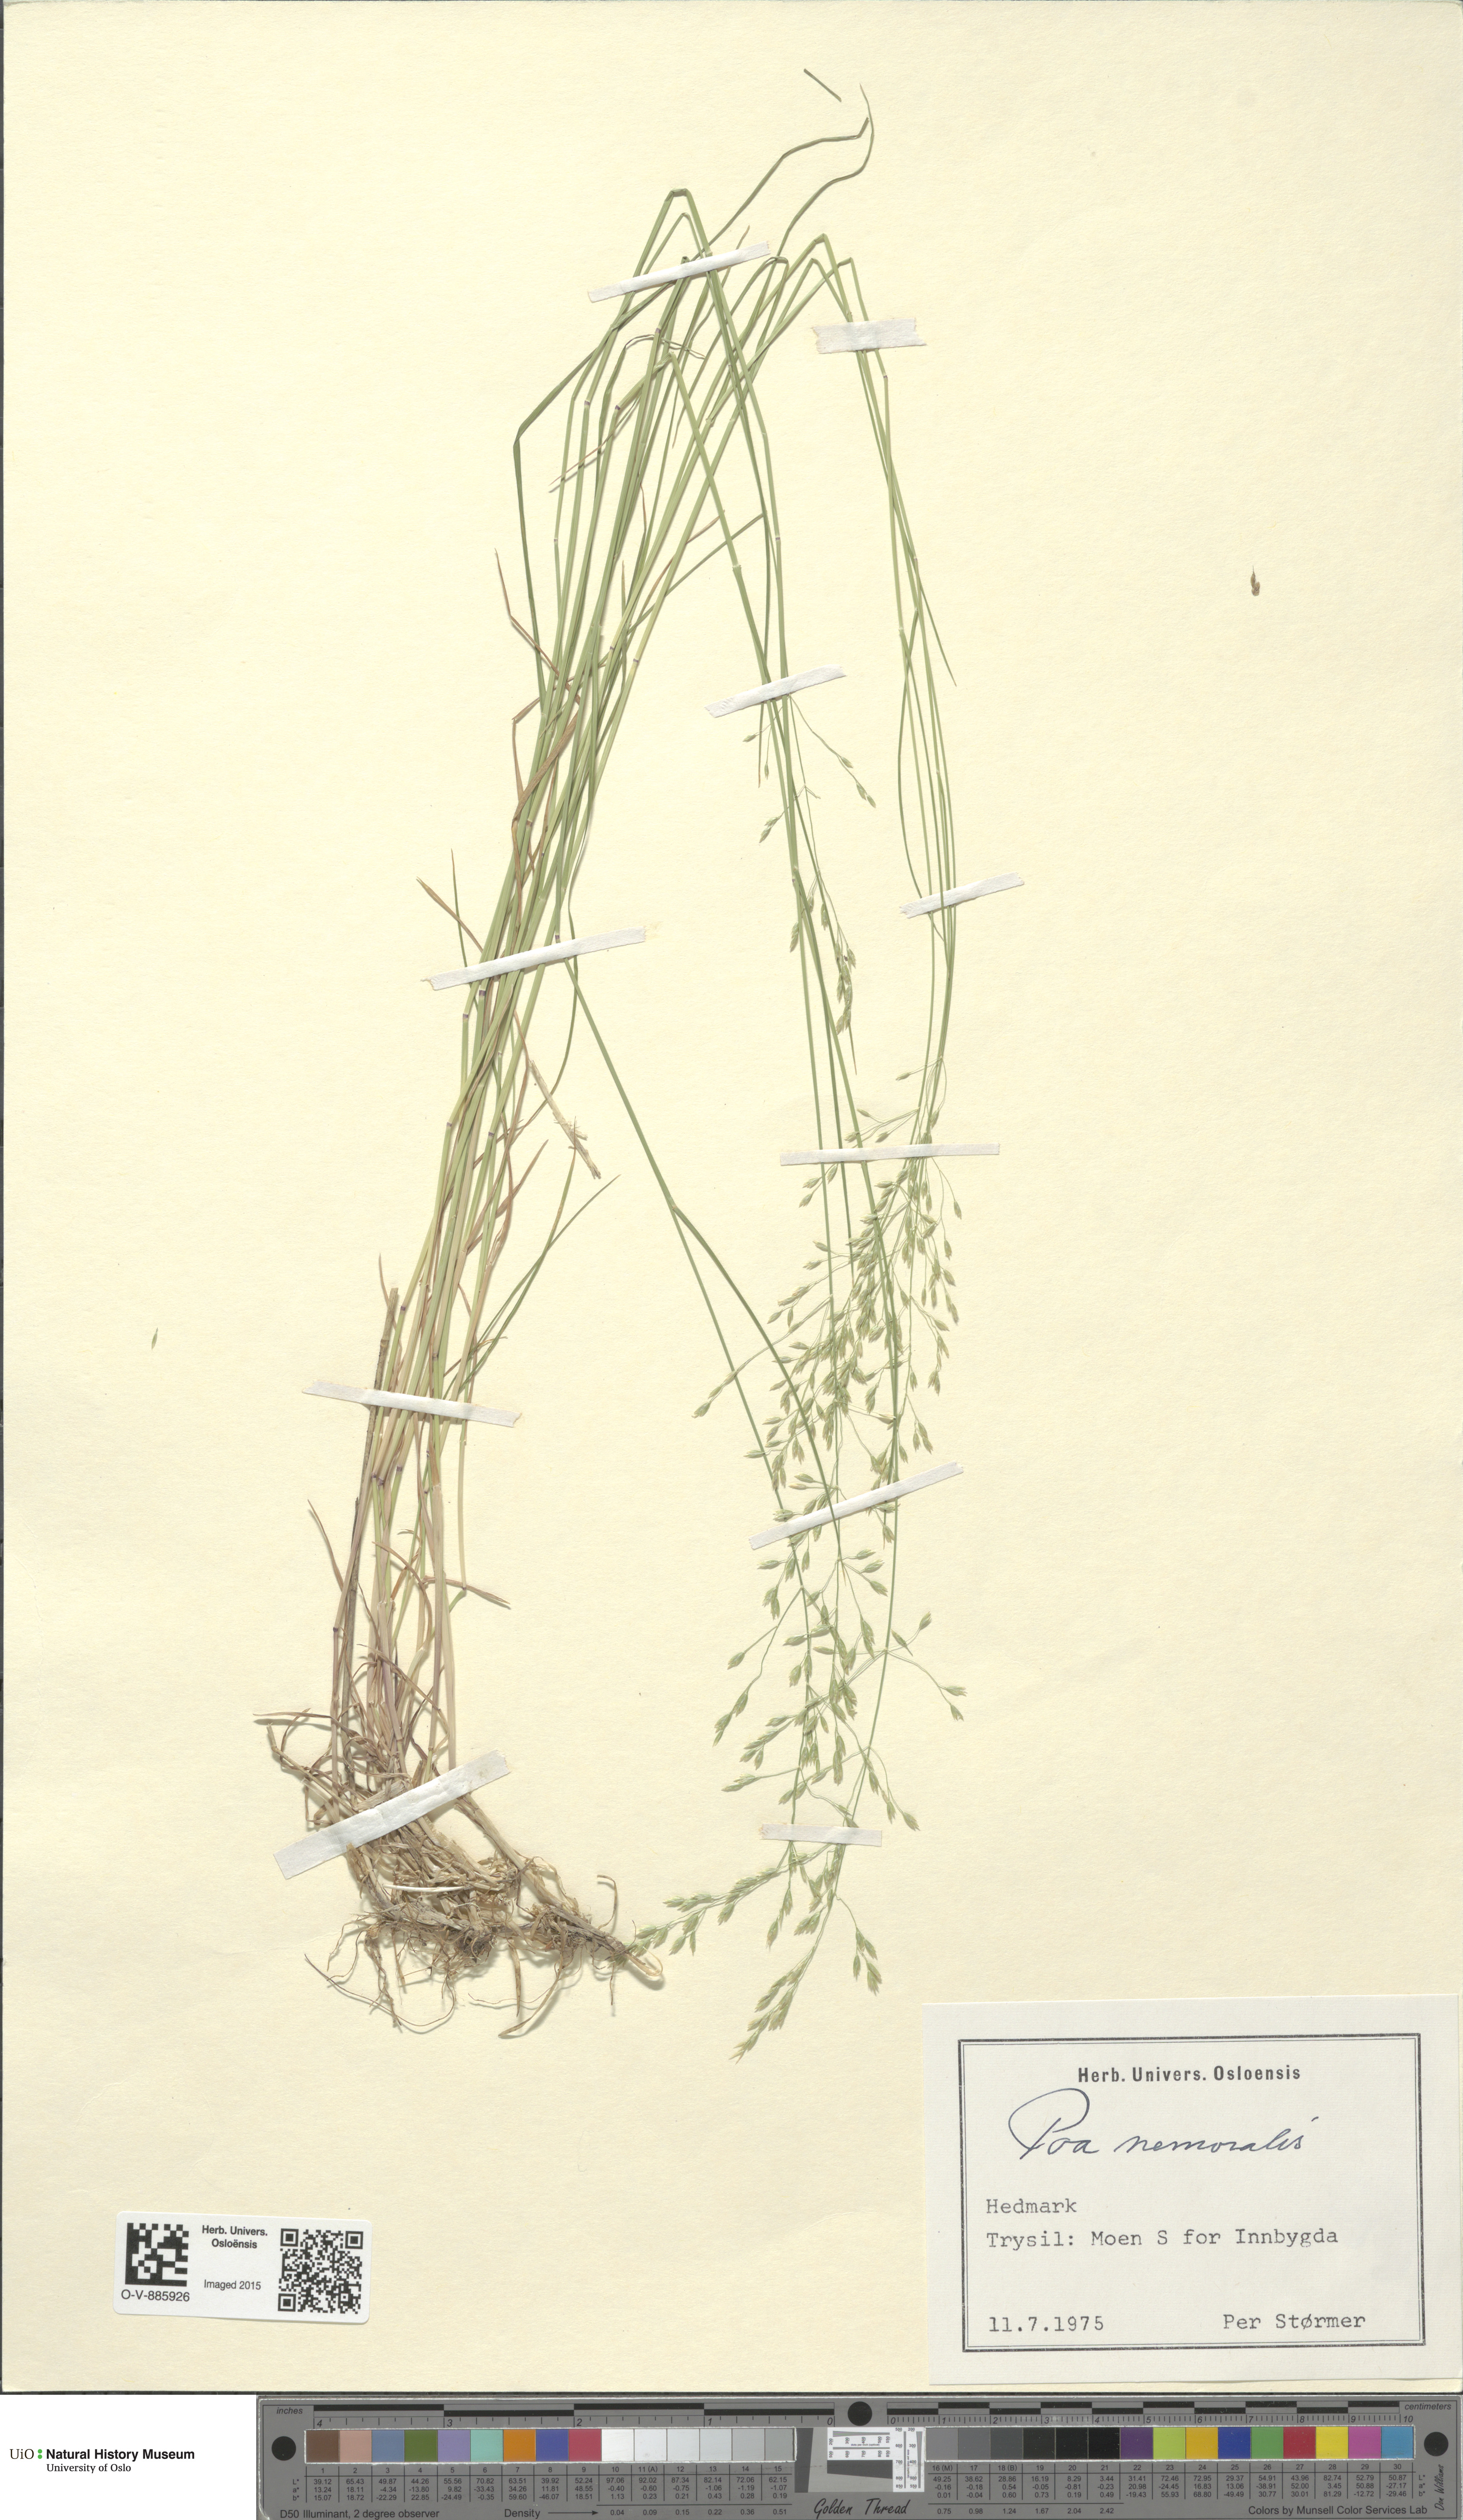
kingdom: Plantae
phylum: Tracheophyta
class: Liliopsida
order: Poales
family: Poaceae
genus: Poa
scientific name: Poa nemoralis
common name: Wood bluegrass
